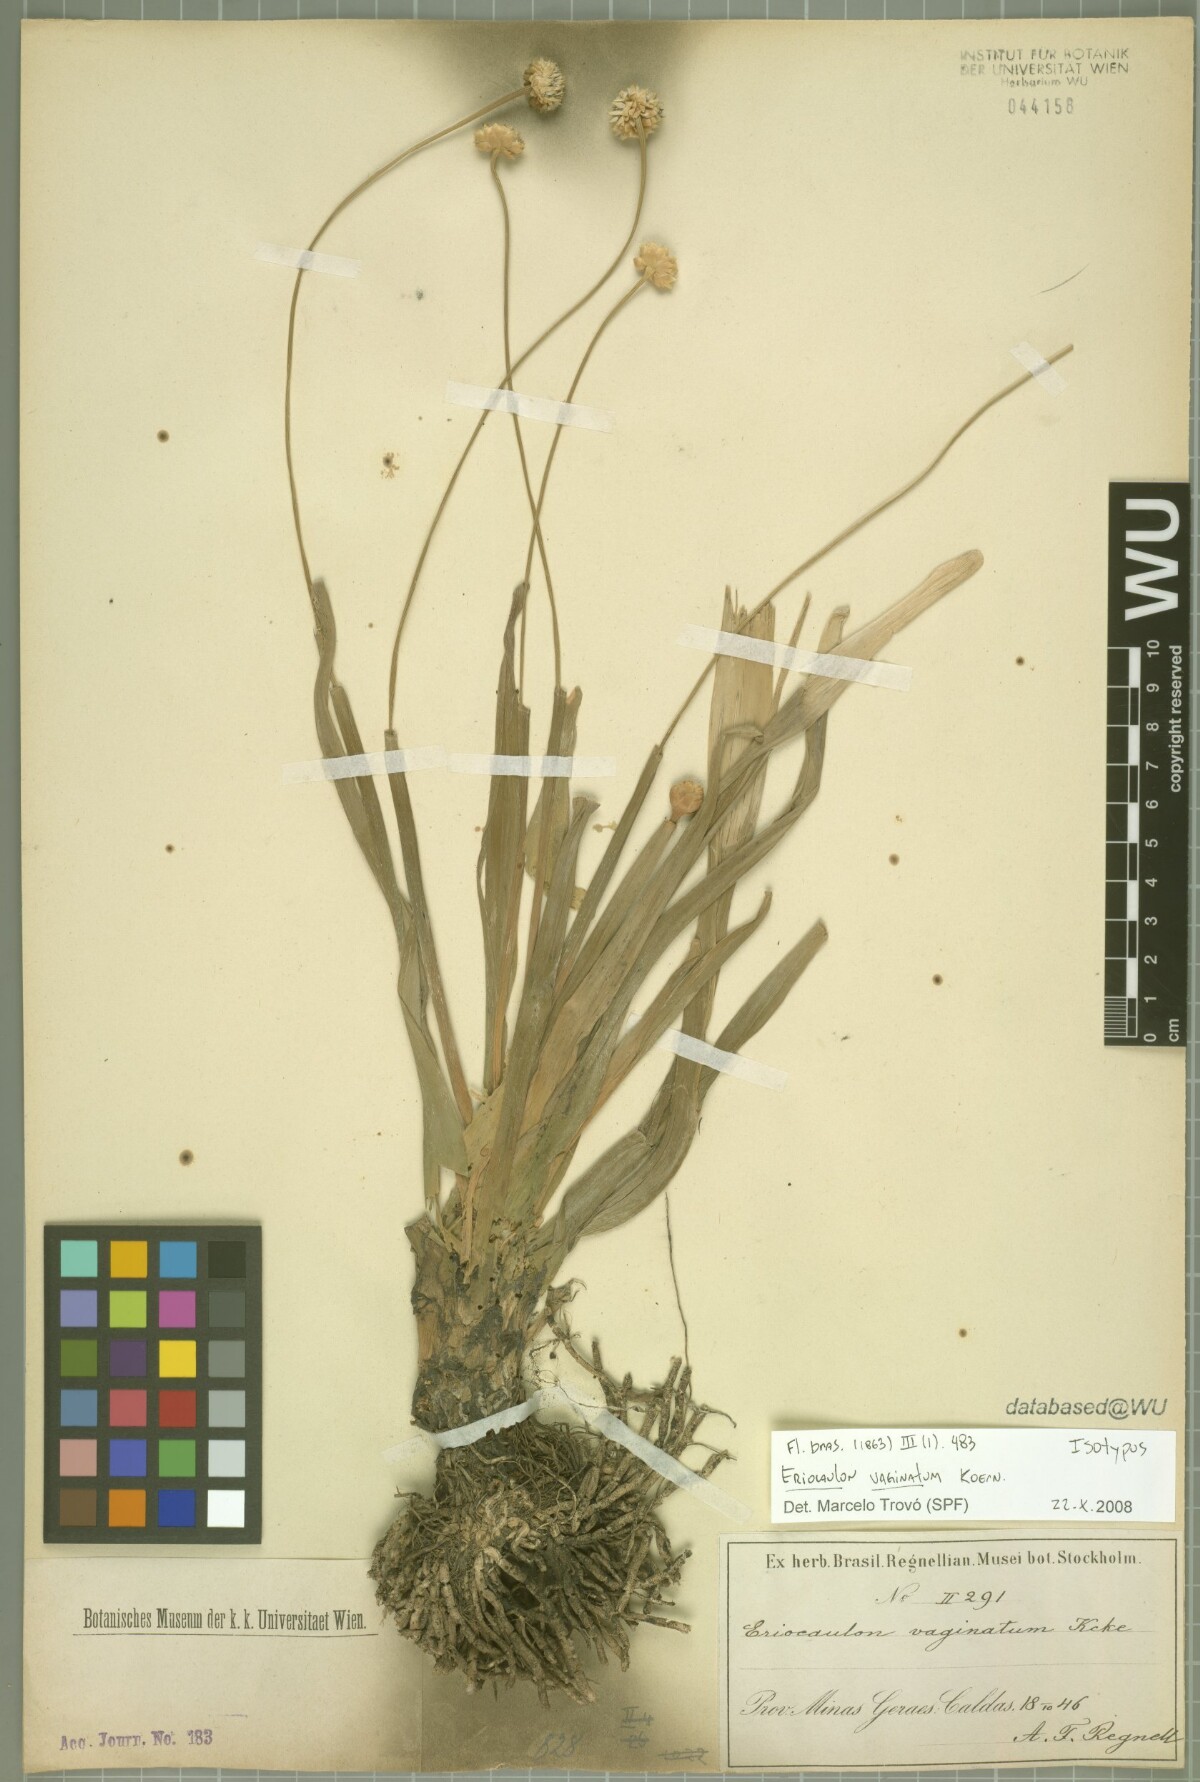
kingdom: Plantae
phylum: Tracheophyta
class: Liliopsida
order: Poales
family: Eriocaulaceae
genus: Eriocaulon
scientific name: Eriocaulon ligulatum
